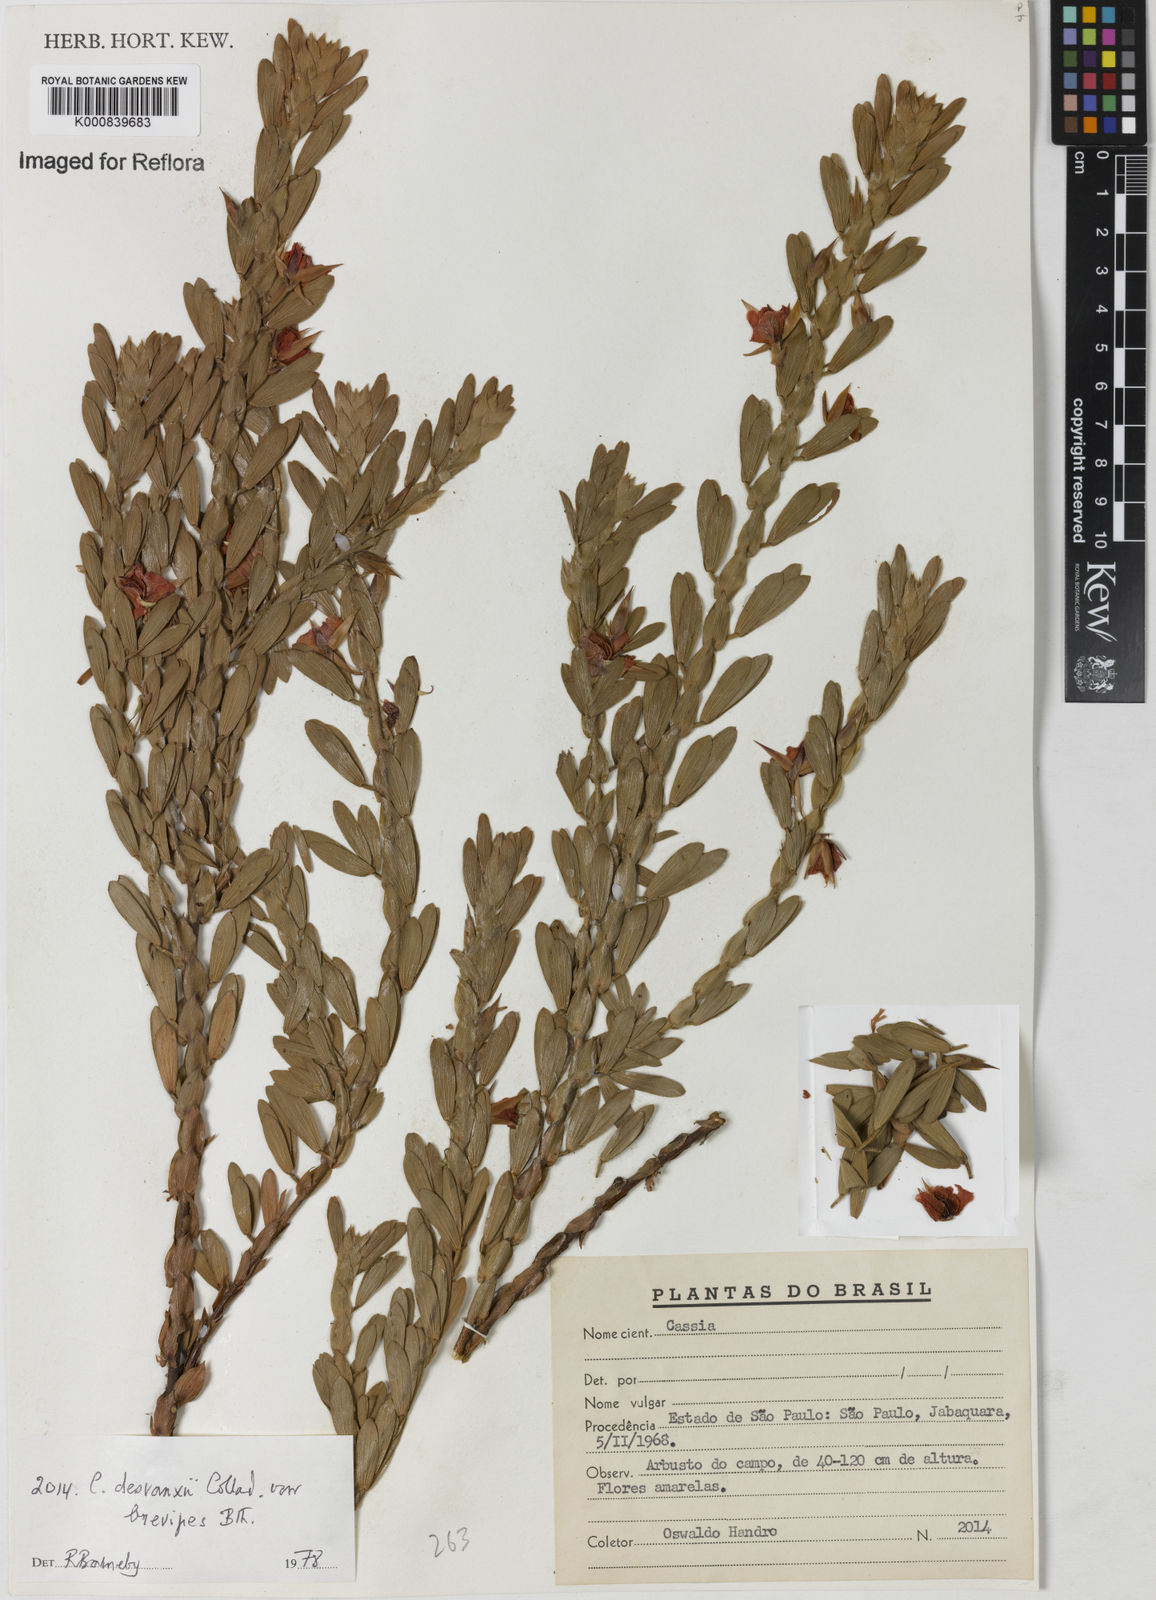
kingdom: Plantae
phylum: Tracheophyta
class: Magnoliopsida
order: Fabales
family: Fabaceae
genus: Chamaecrista
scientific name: Chamaecrista desvauxii
